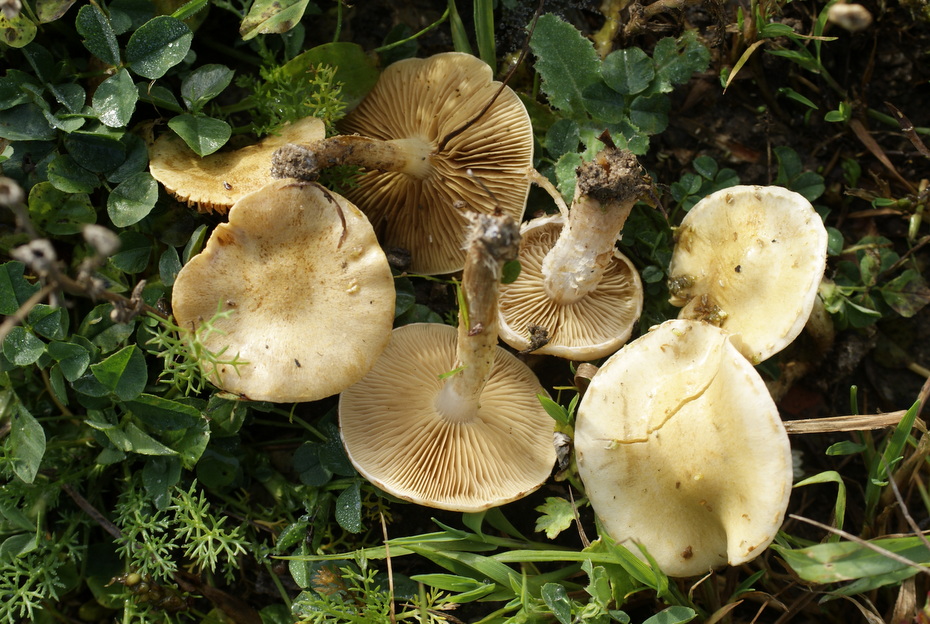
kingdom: Fungi
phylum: Basidiomycota
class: Agaricomycetes
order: Agaricales
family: Strophariaceae
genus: Pholiota
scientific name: Pholiota gummosa
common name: grøngul skælhat
